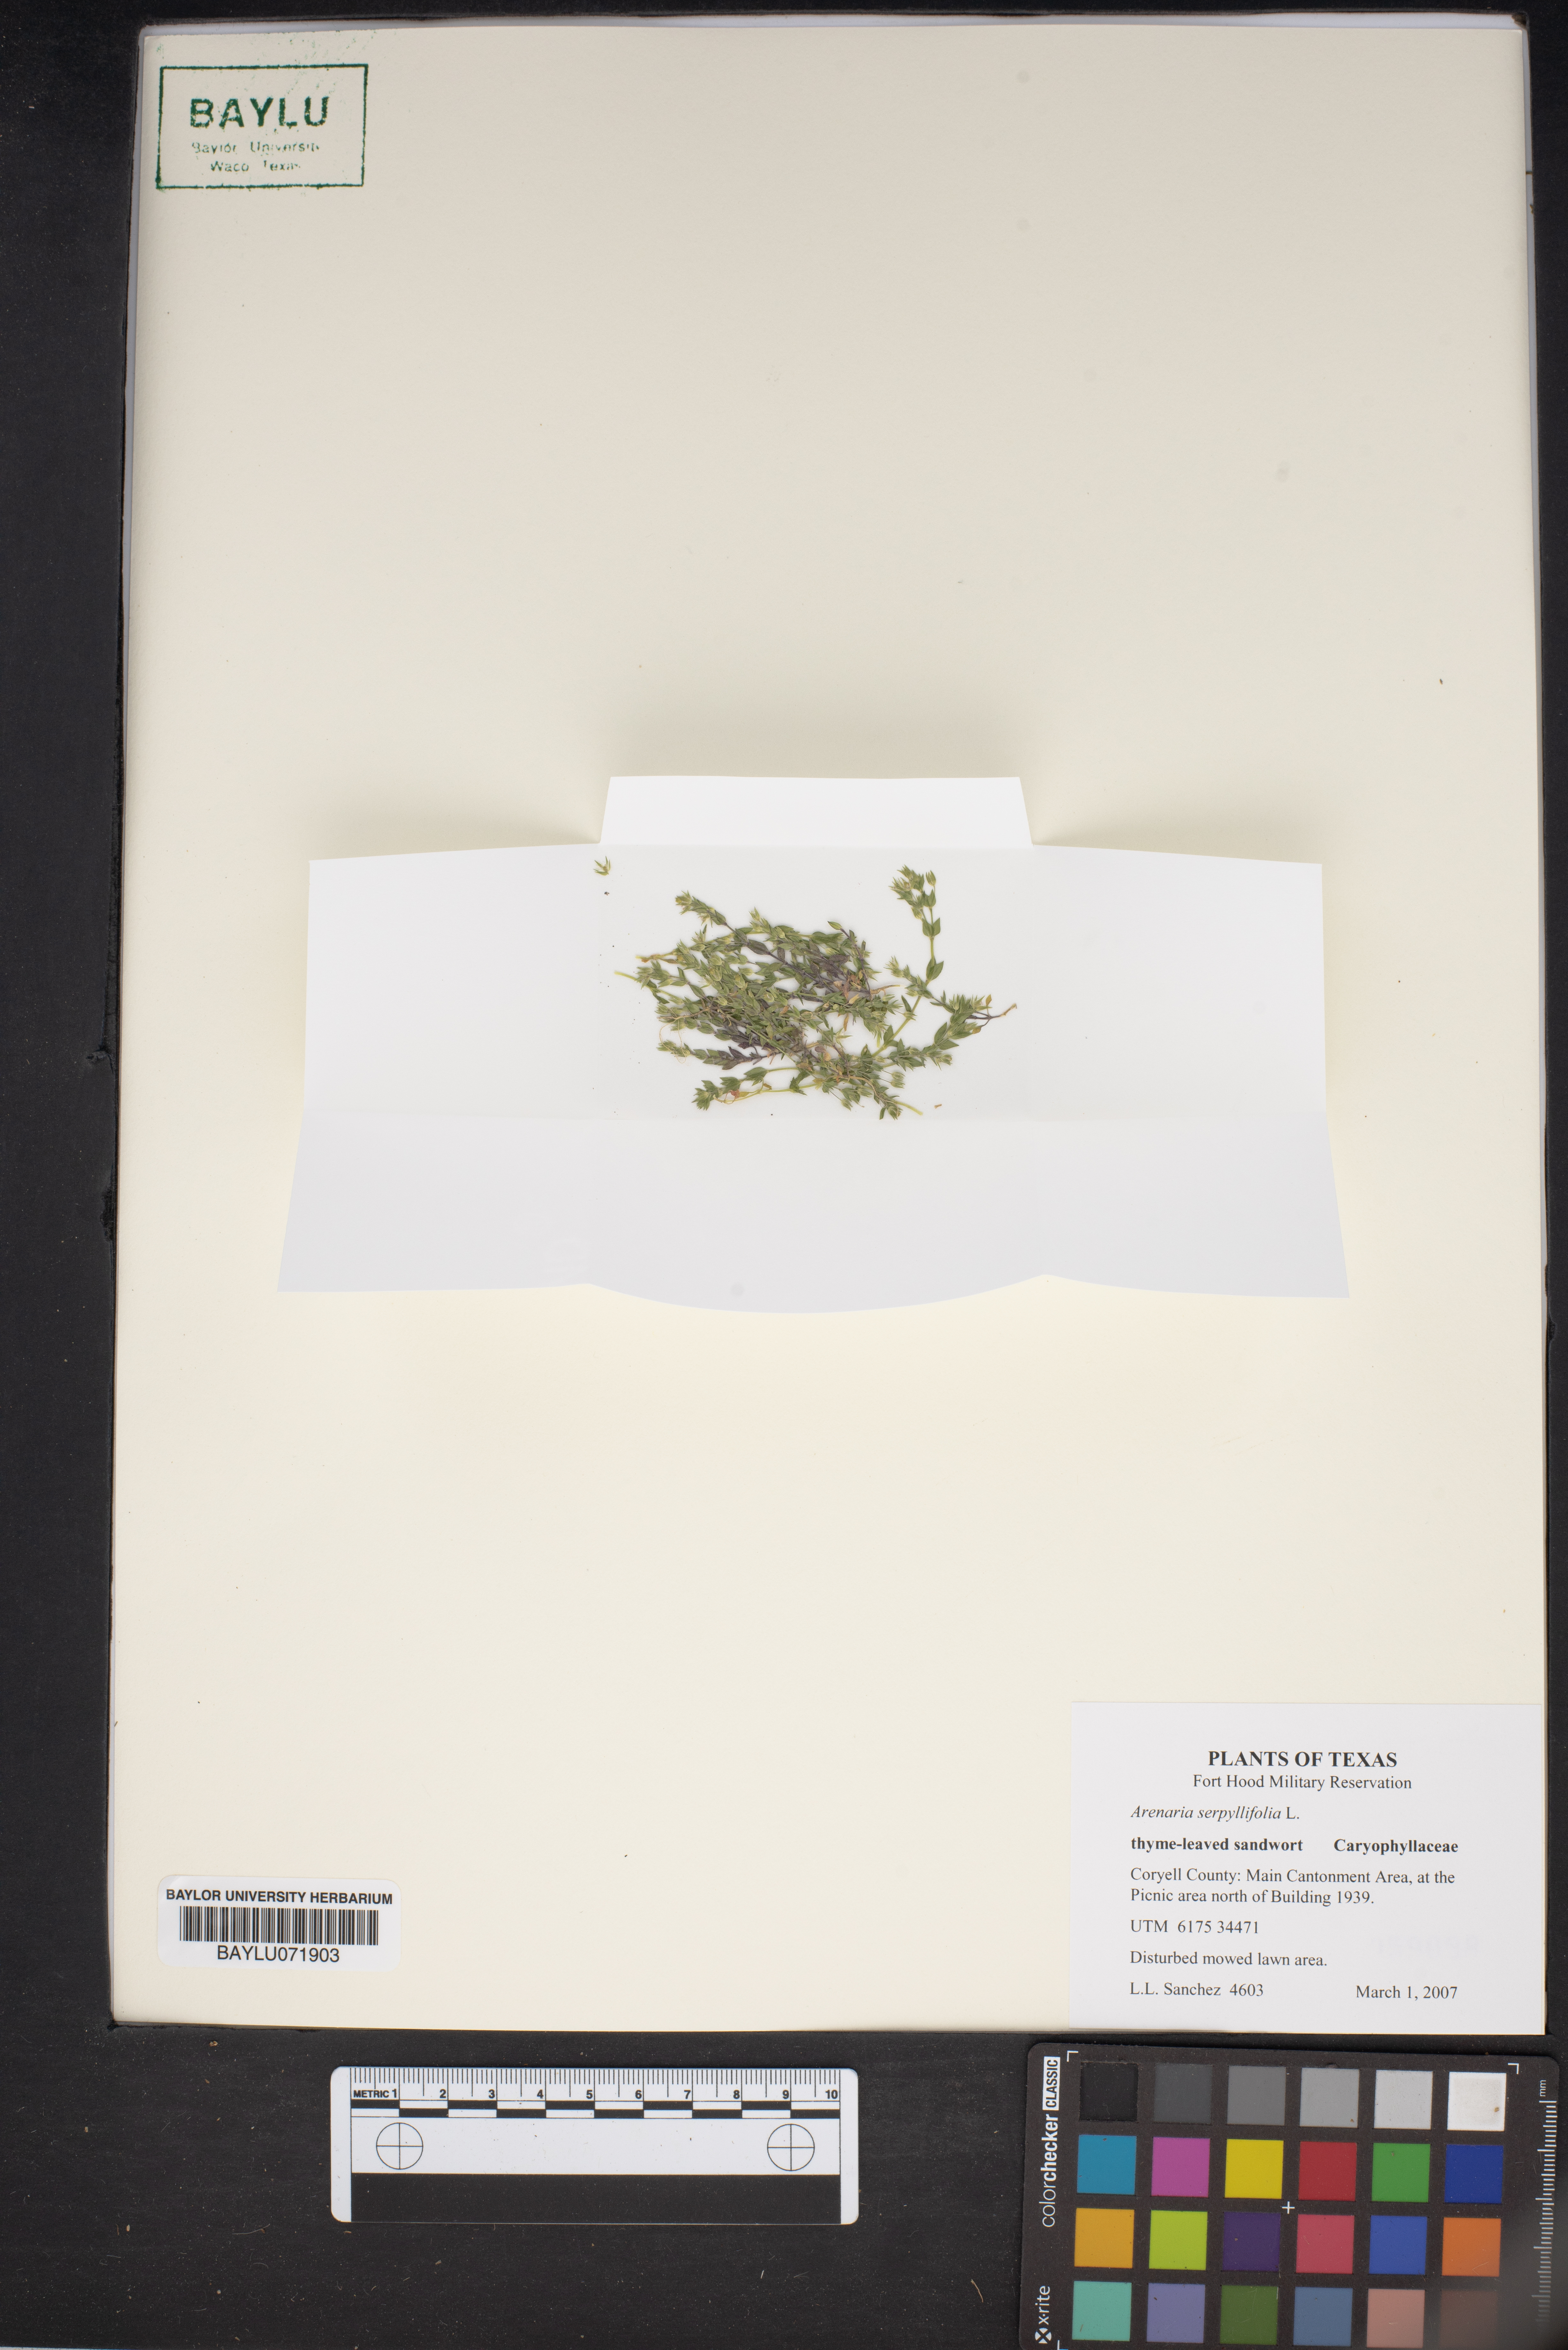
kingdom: Plantae
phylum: Tracheophyta
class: Magnoliopsida
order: Caryophyllales
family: Caryophyllaceae
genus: Arenaria
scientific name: Arenaria serpyllifolia
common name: Thyme-leaved sandwort
